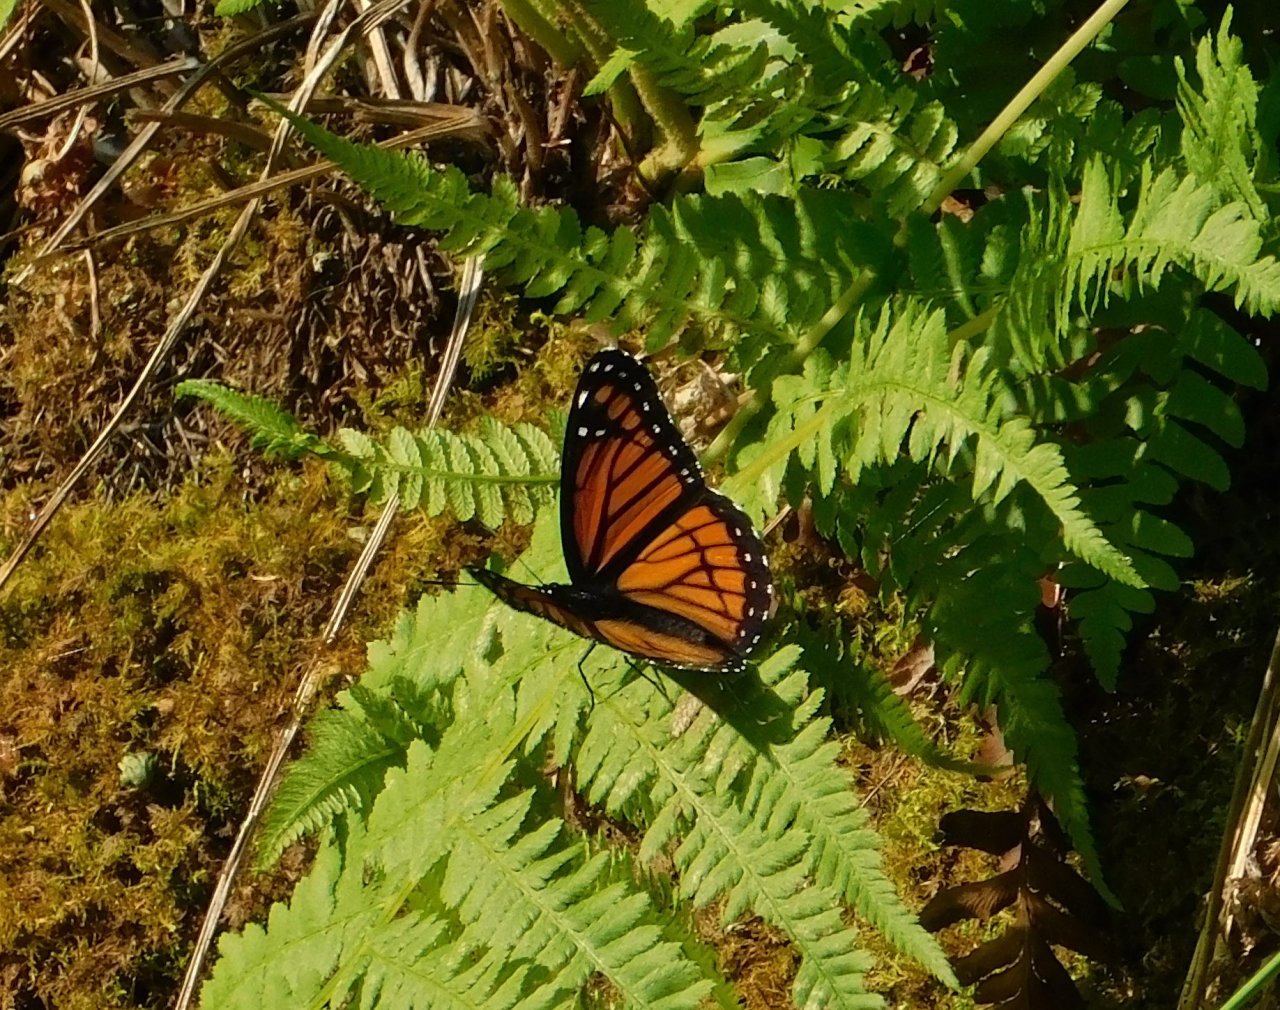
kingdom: Animalia
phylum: Arthropoda
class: Insecta
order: Lepidoptera
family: Nymphalidae
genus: Limenitis
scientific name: Limenitis archippus
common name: Viceroy
